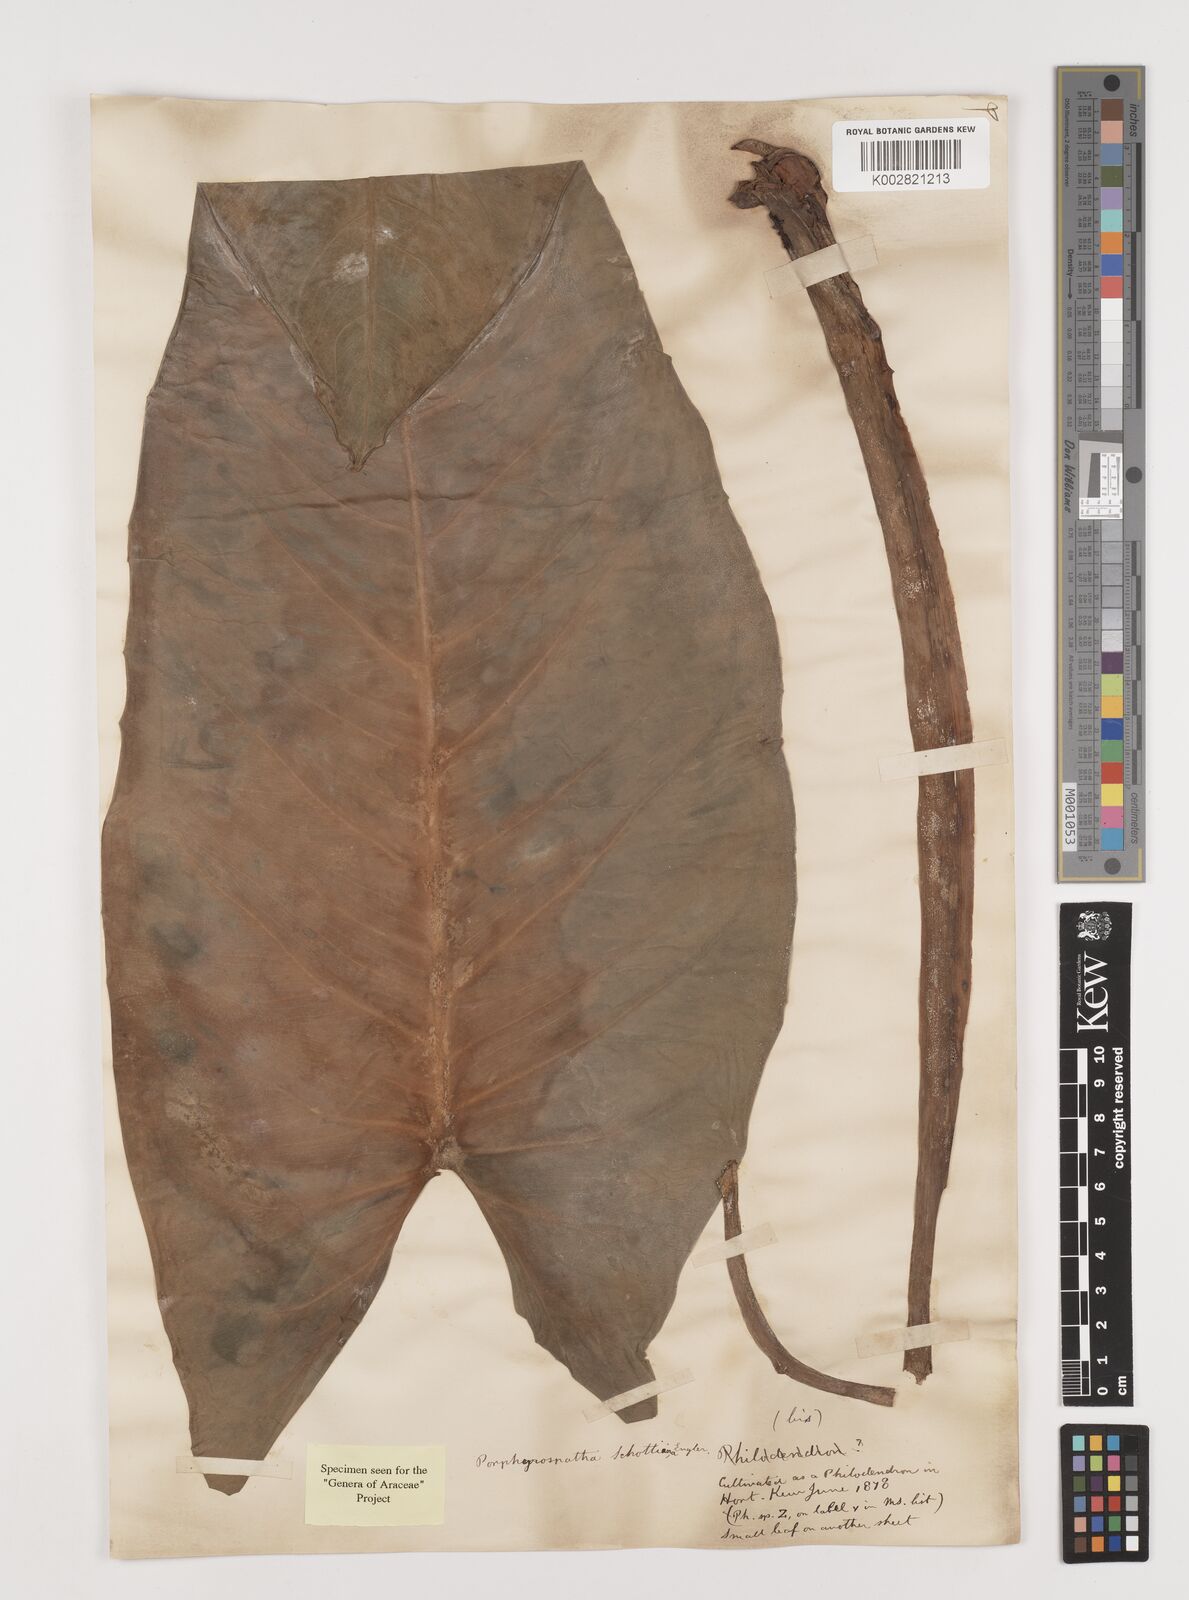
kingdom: Plantae
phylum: Tracheophyta
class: Liliopsida
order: Alismatales
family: Araceae
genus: Syngonium
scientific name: Syngonium schottianum
